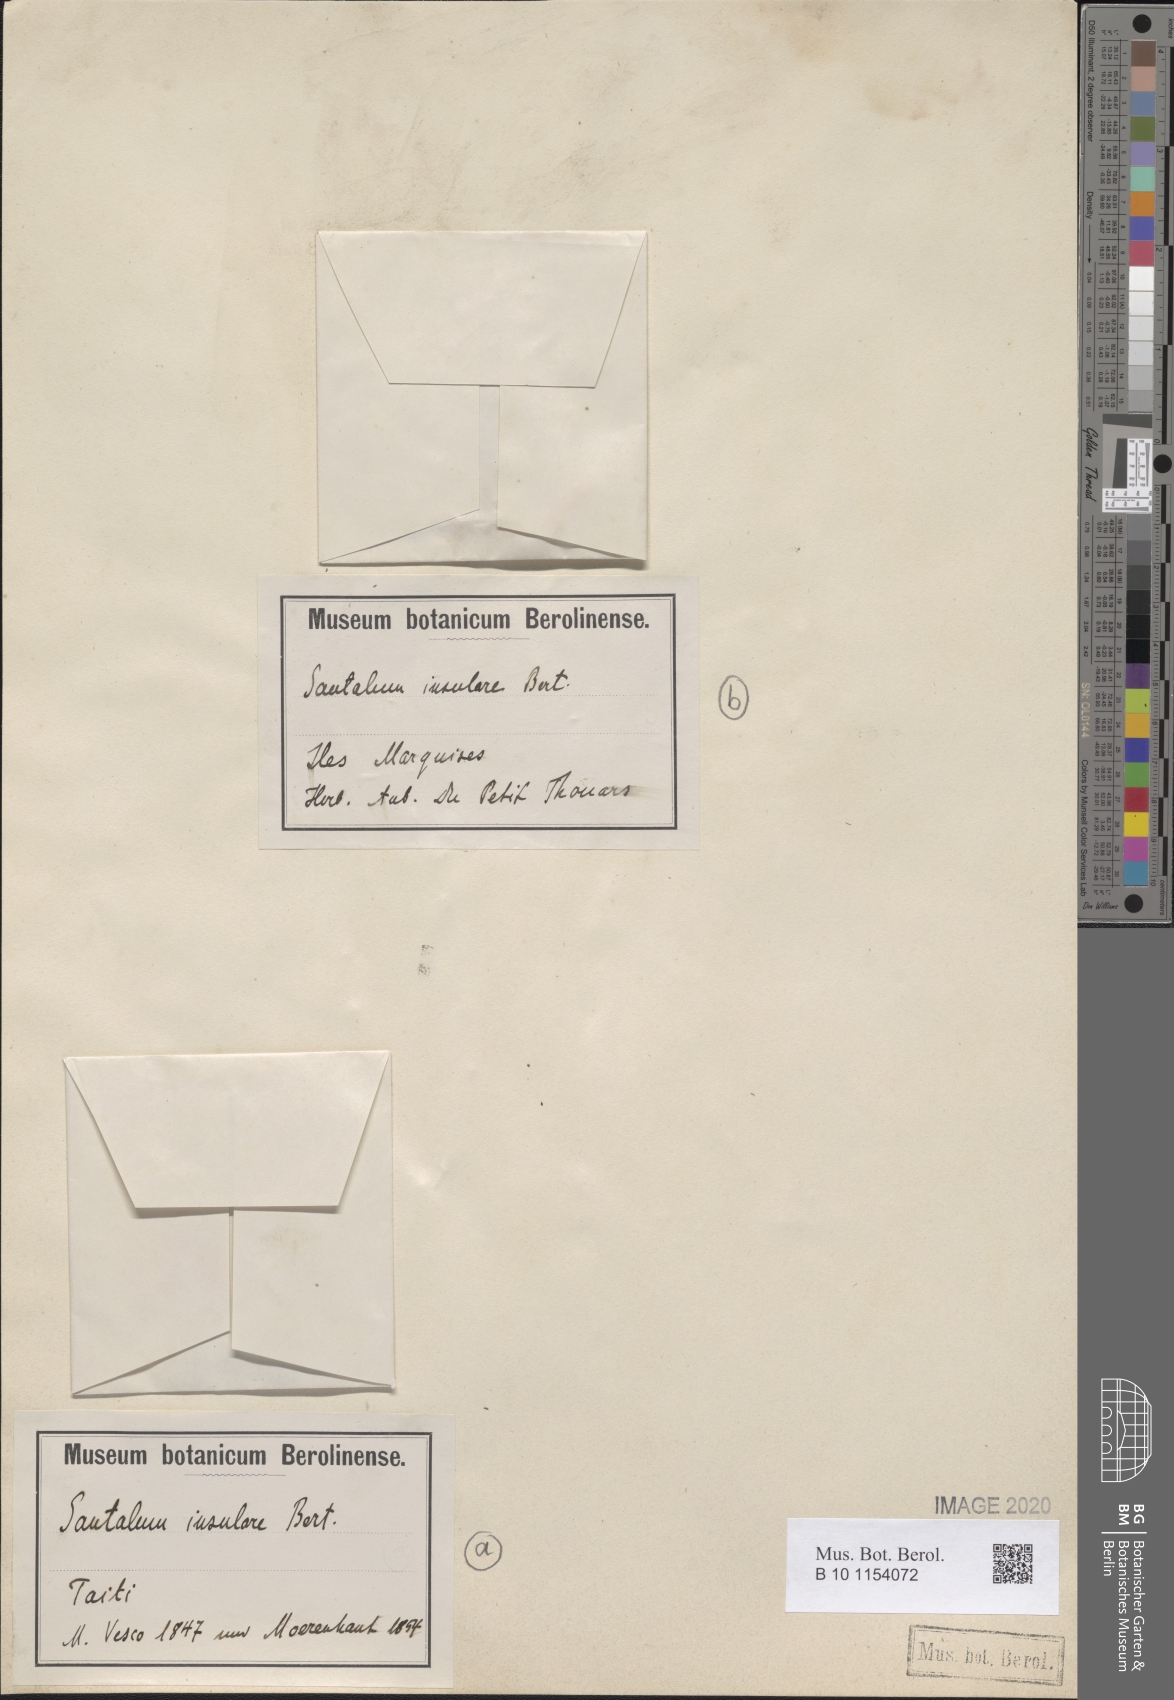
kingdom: Plantae
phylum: Tracheophyta
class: Magnoliopsida
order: Santalales
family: Santalaceae
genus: Santalum
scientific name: Santalum insulare
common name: Polynesian sandalwood
